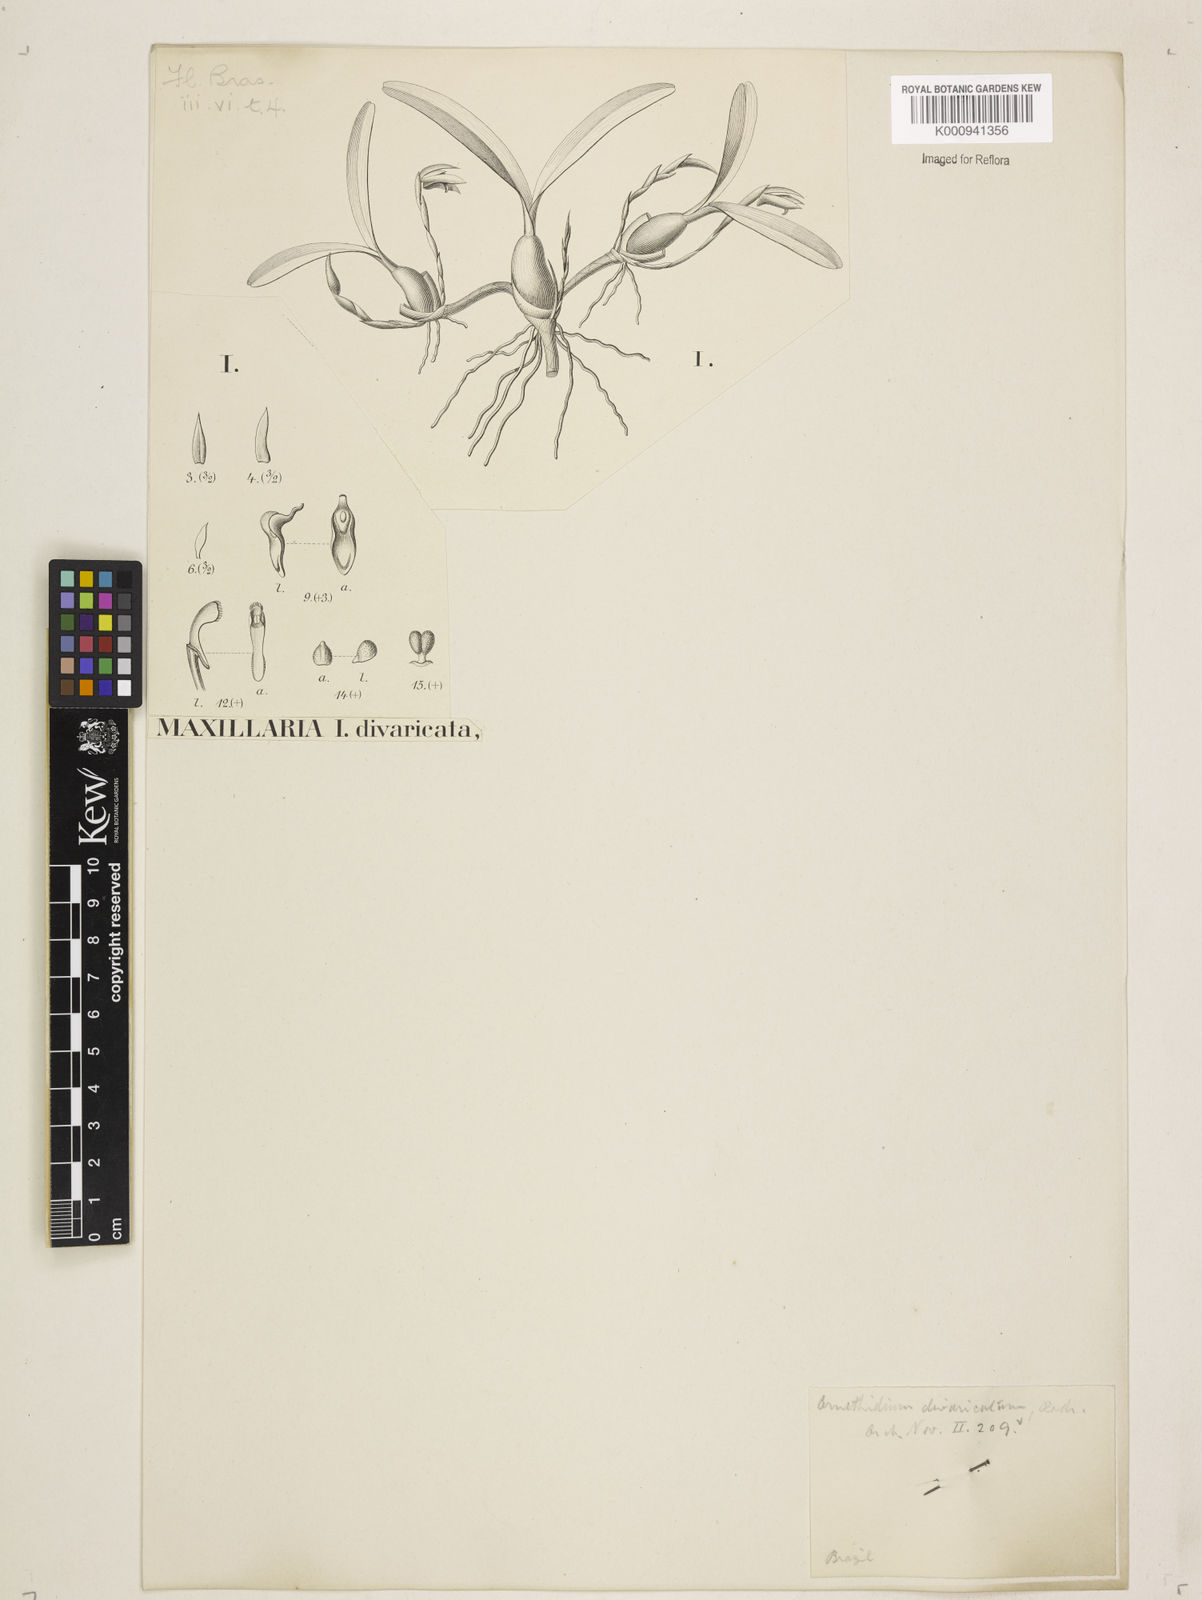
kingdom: Plantae
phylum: Tracheophyta
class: Liliopsida
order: Asparagales
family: Orchidaceae
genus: Maxillaria
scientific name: Maxillaria notylioglossa
